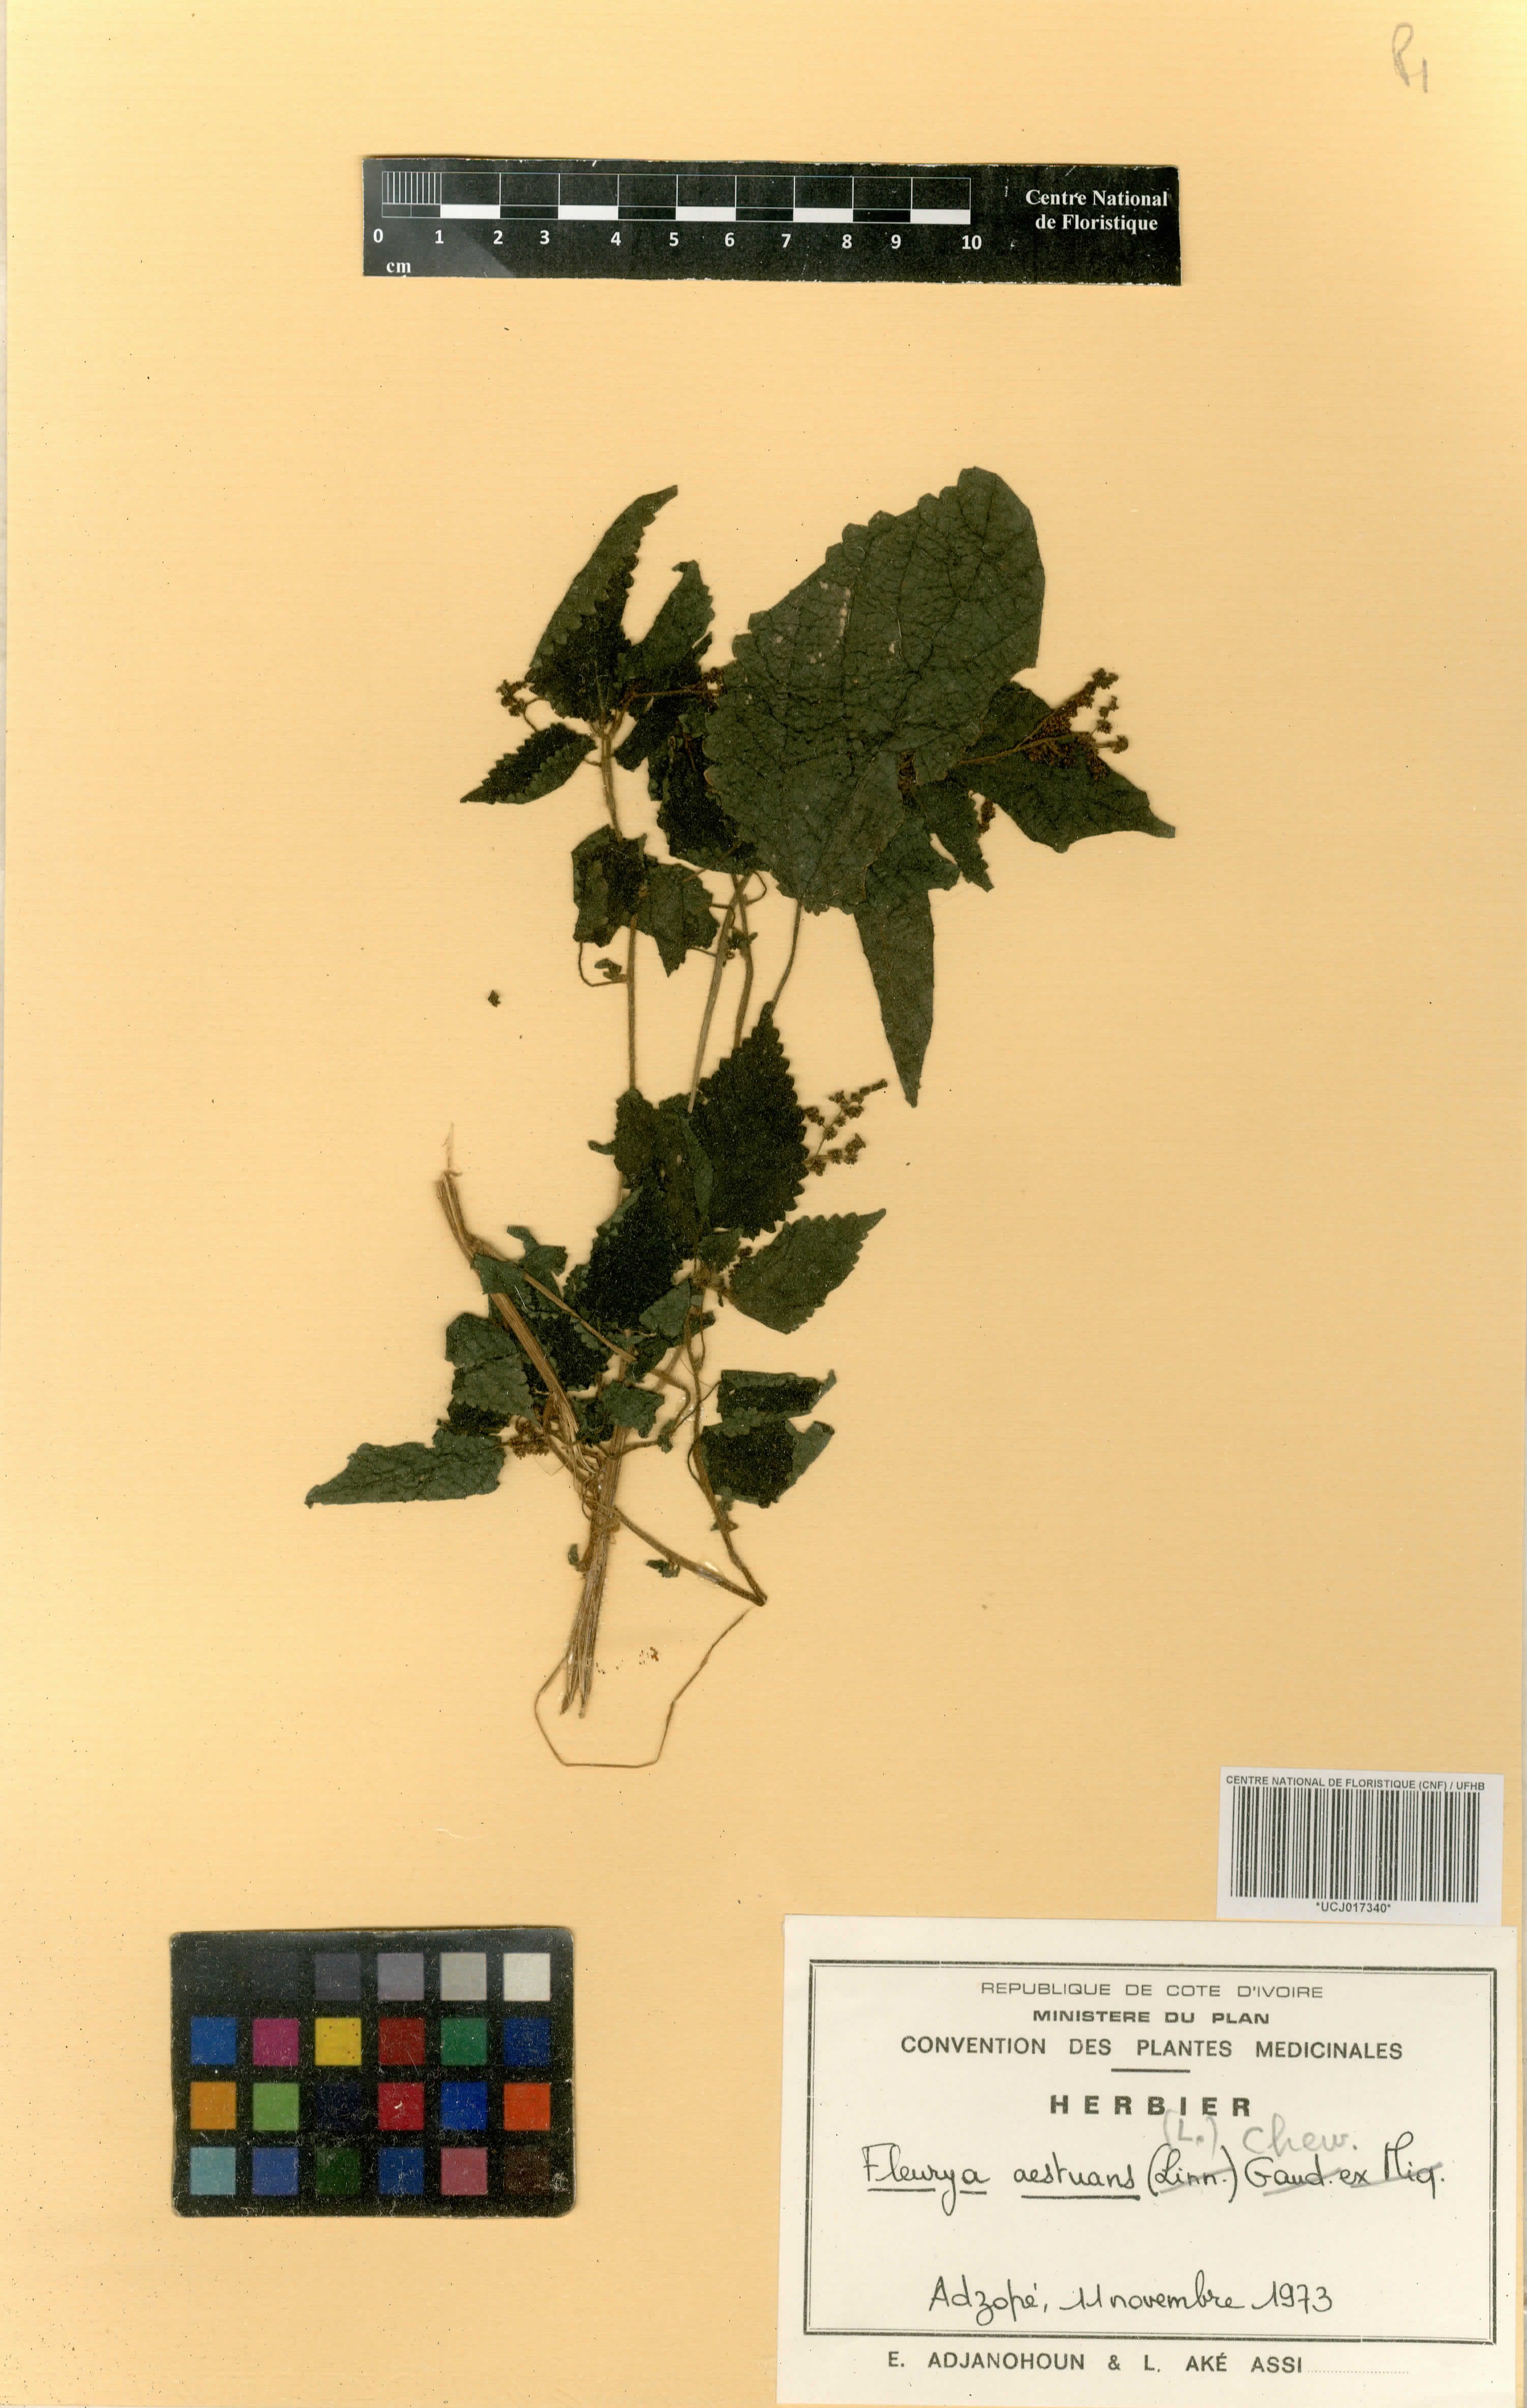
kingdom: Plantae
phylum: Tracheophyta
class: Magnoliopsida
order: Rosales
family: Urticaceae
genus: Laportea
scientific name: Laportea aestuans
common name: West indian woodnettle
